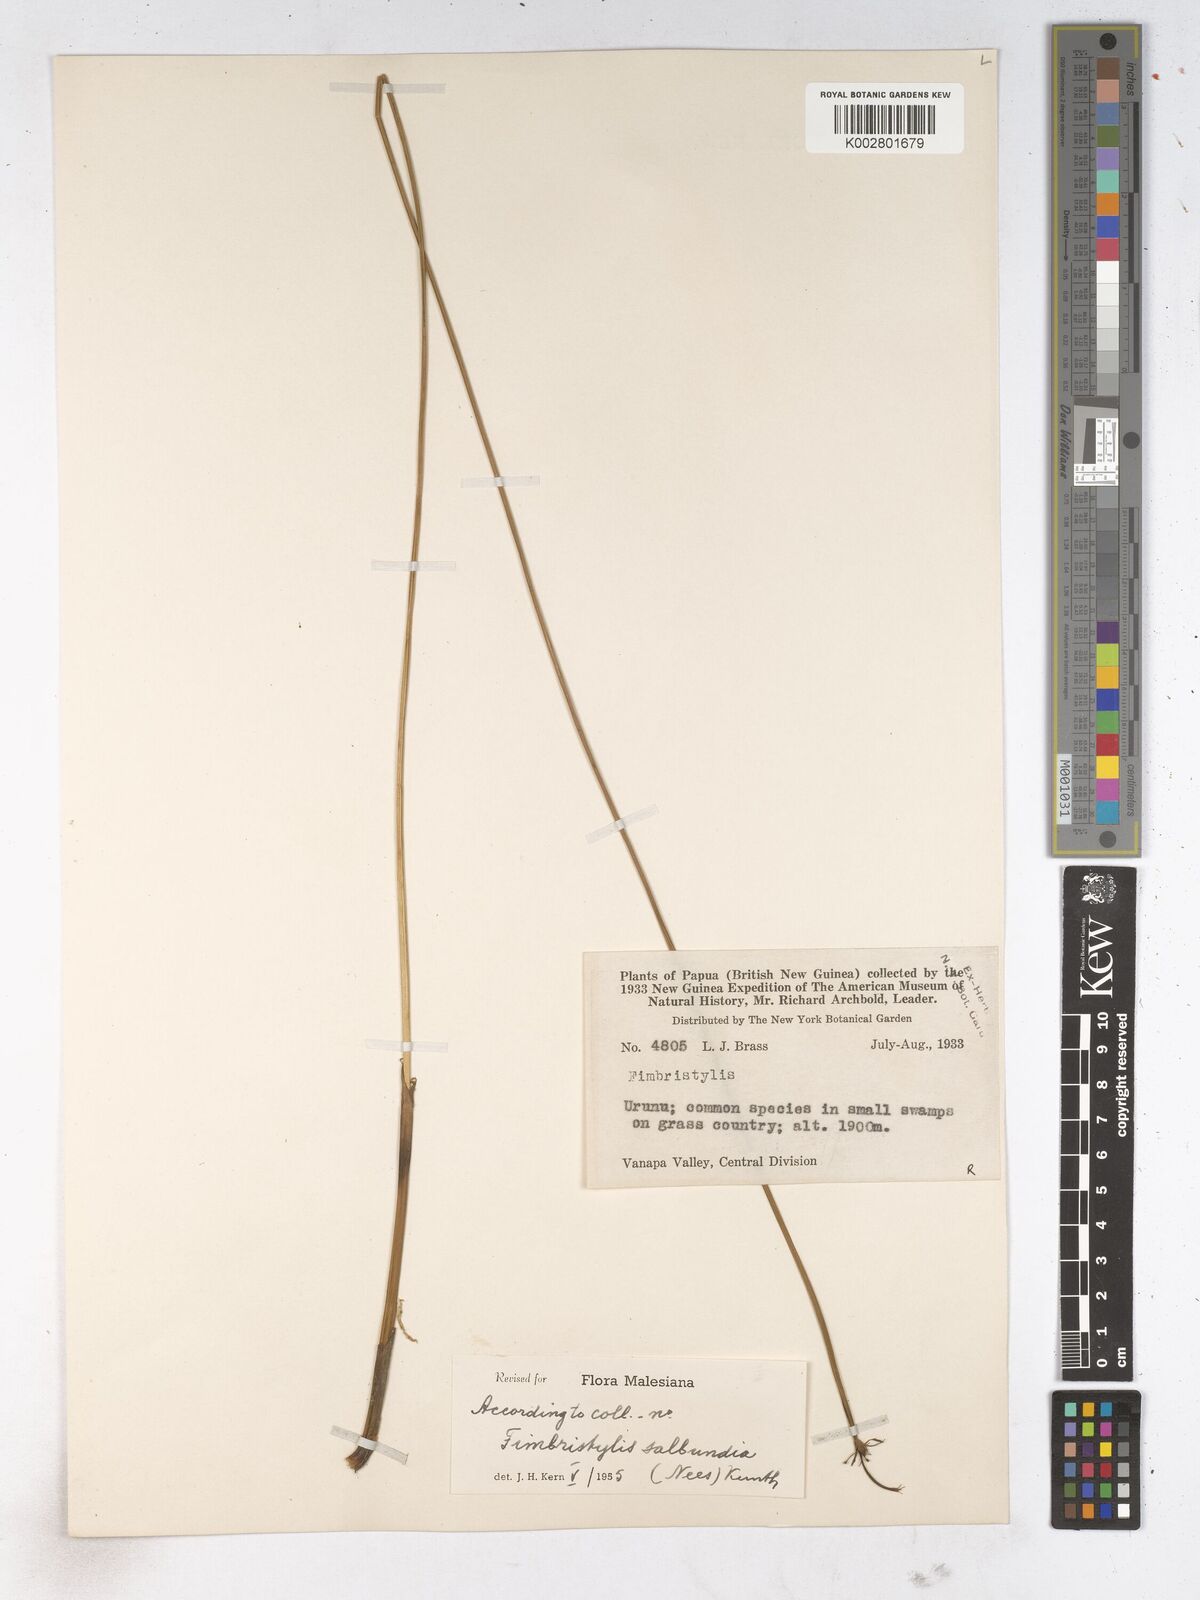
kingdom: Plantae
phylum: Tracheophyta
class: Liliopsida
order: Poales
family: Cyperaceae
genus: Fimbristylis
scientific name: Fimbristylis salbundia
